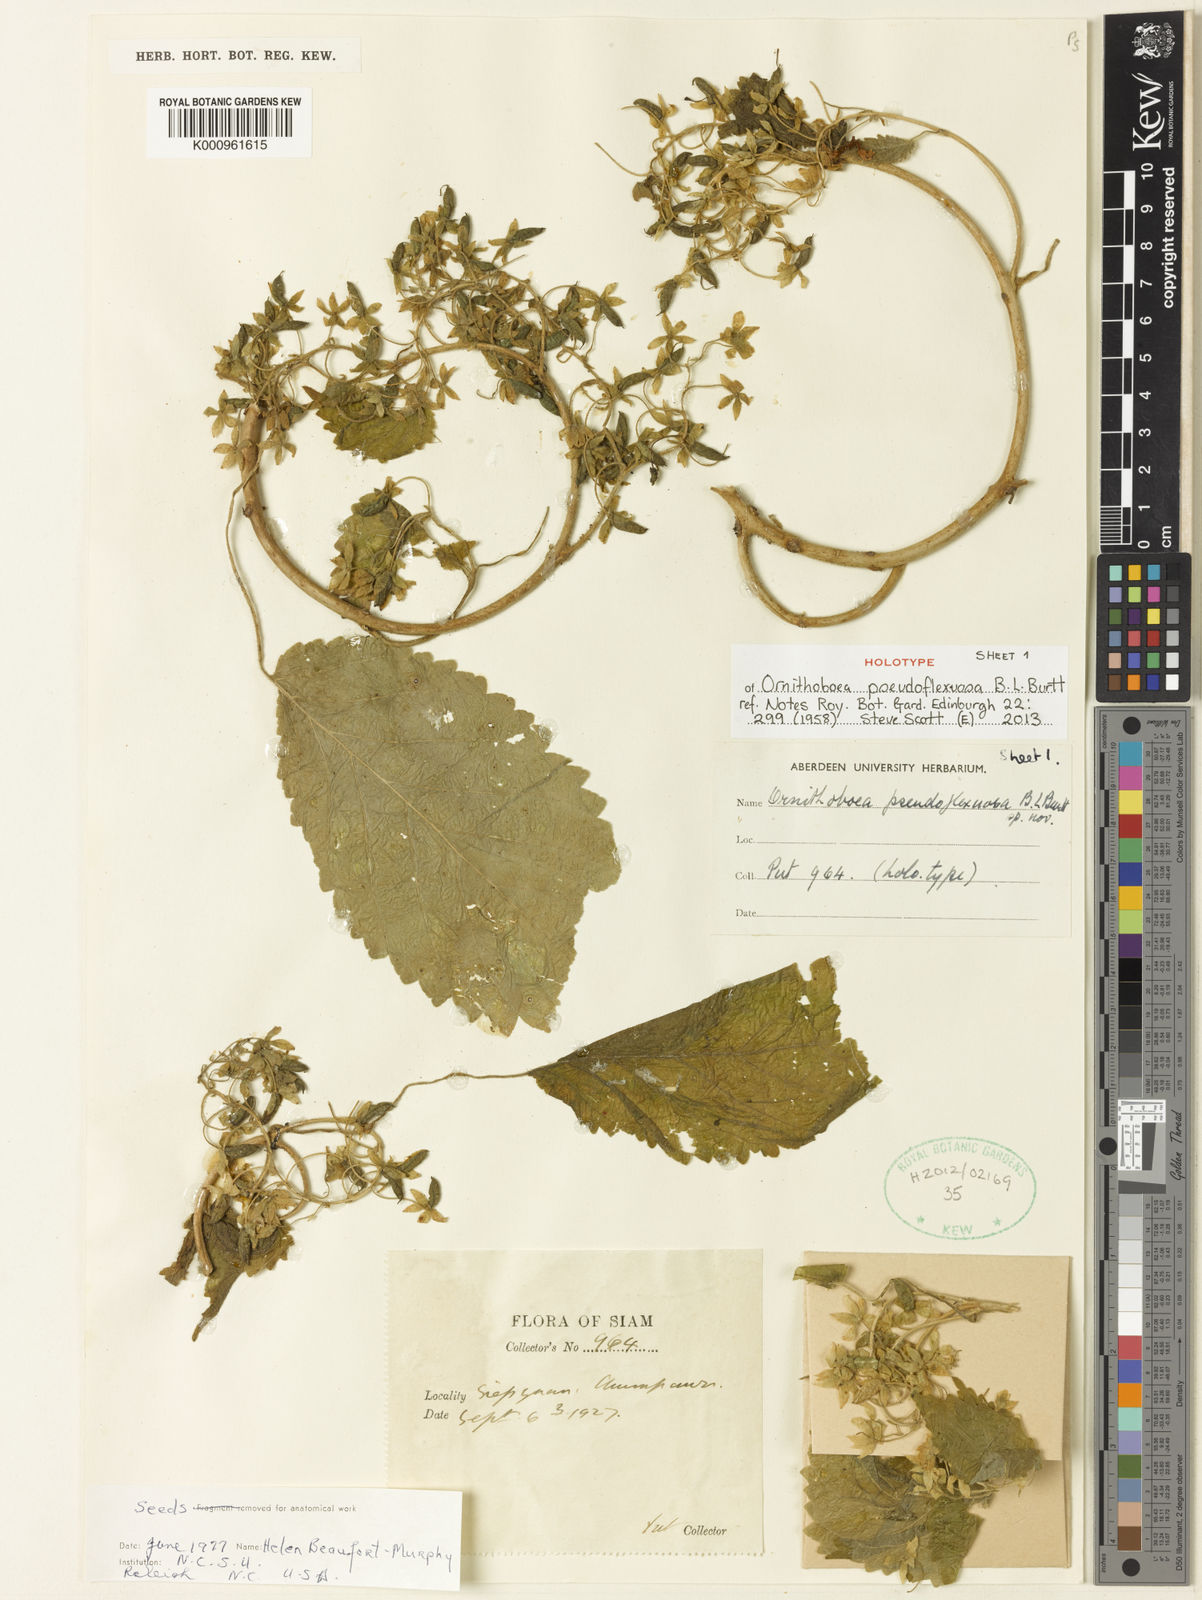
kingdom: Plantae
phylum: Tracheophyta
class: Magnoliopsida
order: Lamiales
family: Gesneriaceae
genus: Ornithoboea
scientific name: Ornithoboea pseudoflexuosa
